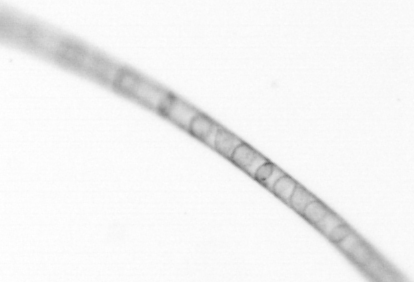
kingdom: Chromista
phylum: Ochrophyta
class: Bacillariophyceae
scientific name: Bacillariophyceae
